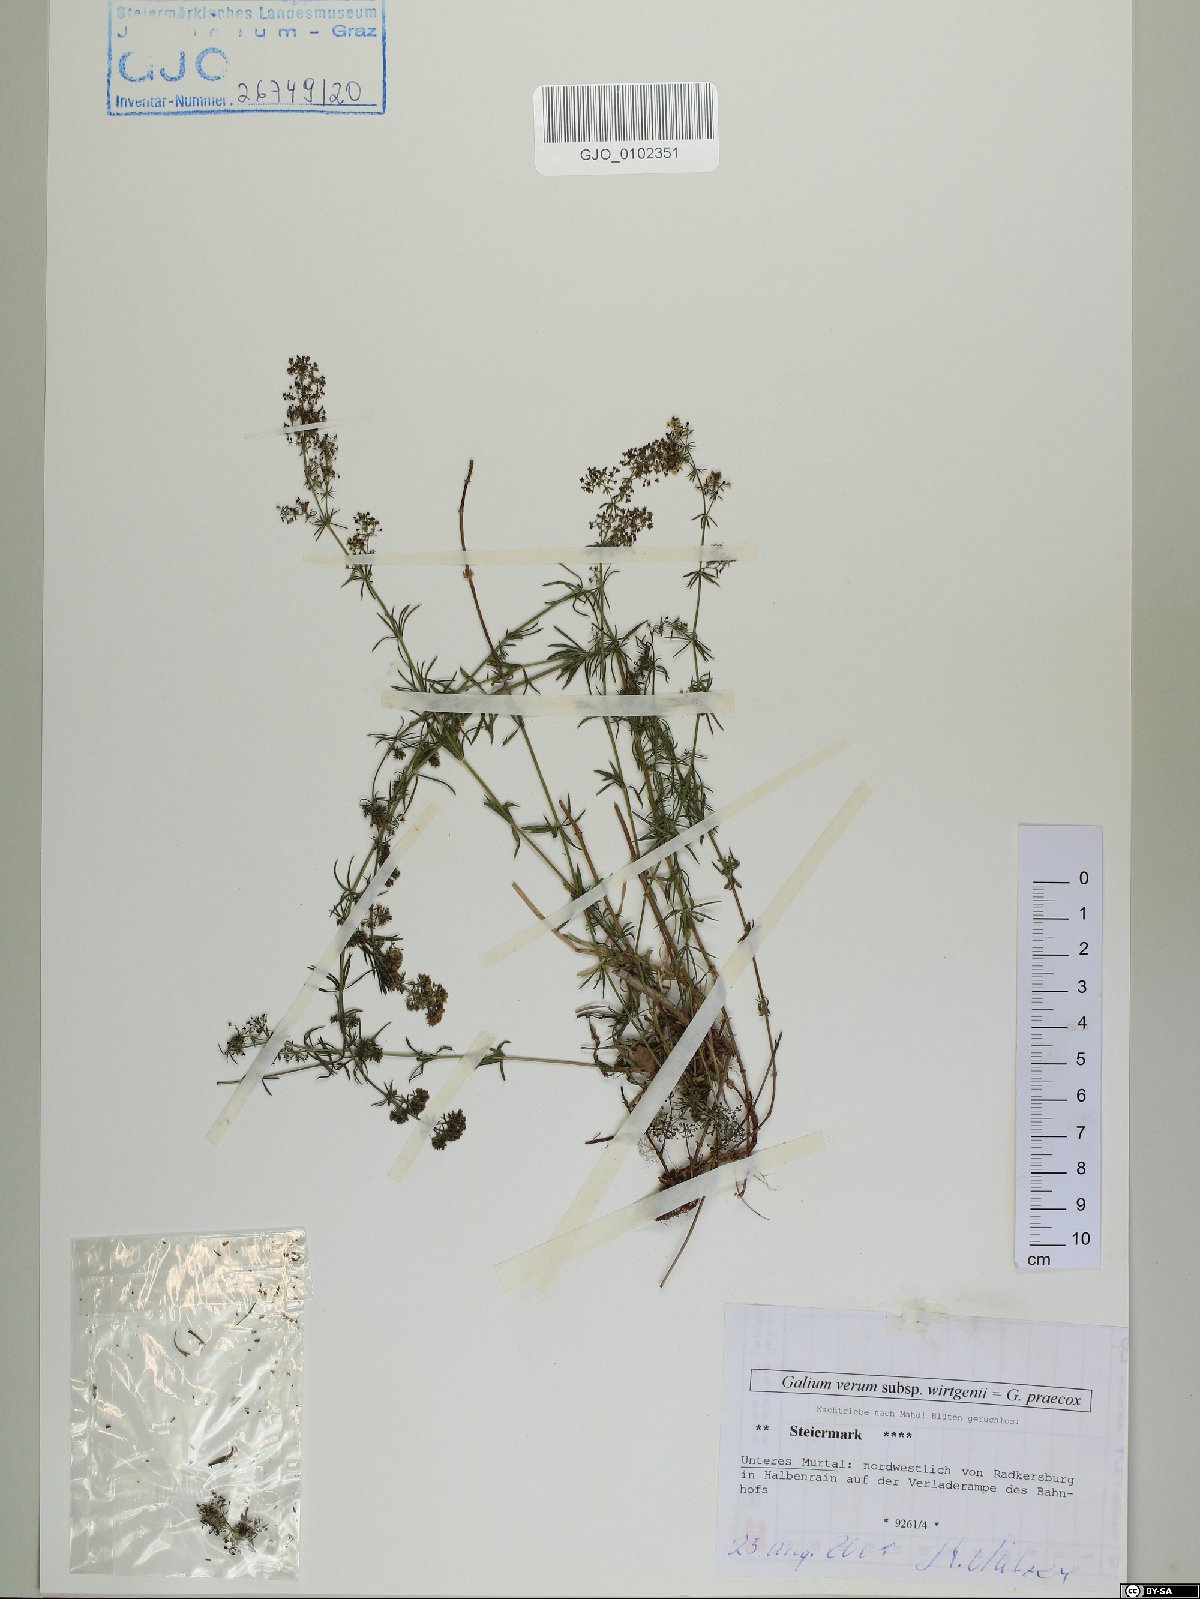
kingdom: Plantae
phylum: Tracheophyta
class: Magnoliopsida
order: Gentianales
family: Rubiaceae
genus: Galium
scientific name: Galium verum
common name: Lady's bedstraw
